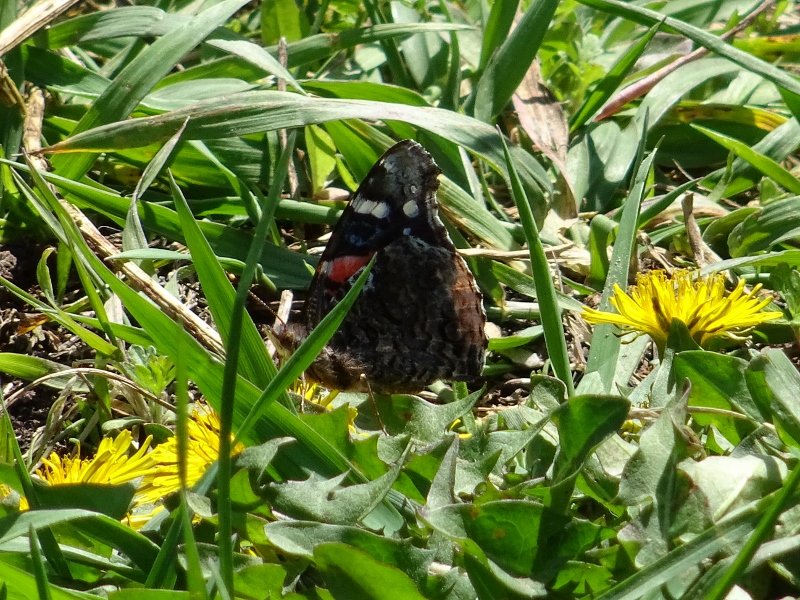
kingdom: Animalia
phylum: Arthropoda
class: Insecta
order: Lepidoptera
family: Nymphalidae
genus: Vanessa
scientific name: Vanessa atalanta
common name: Red Admiral
